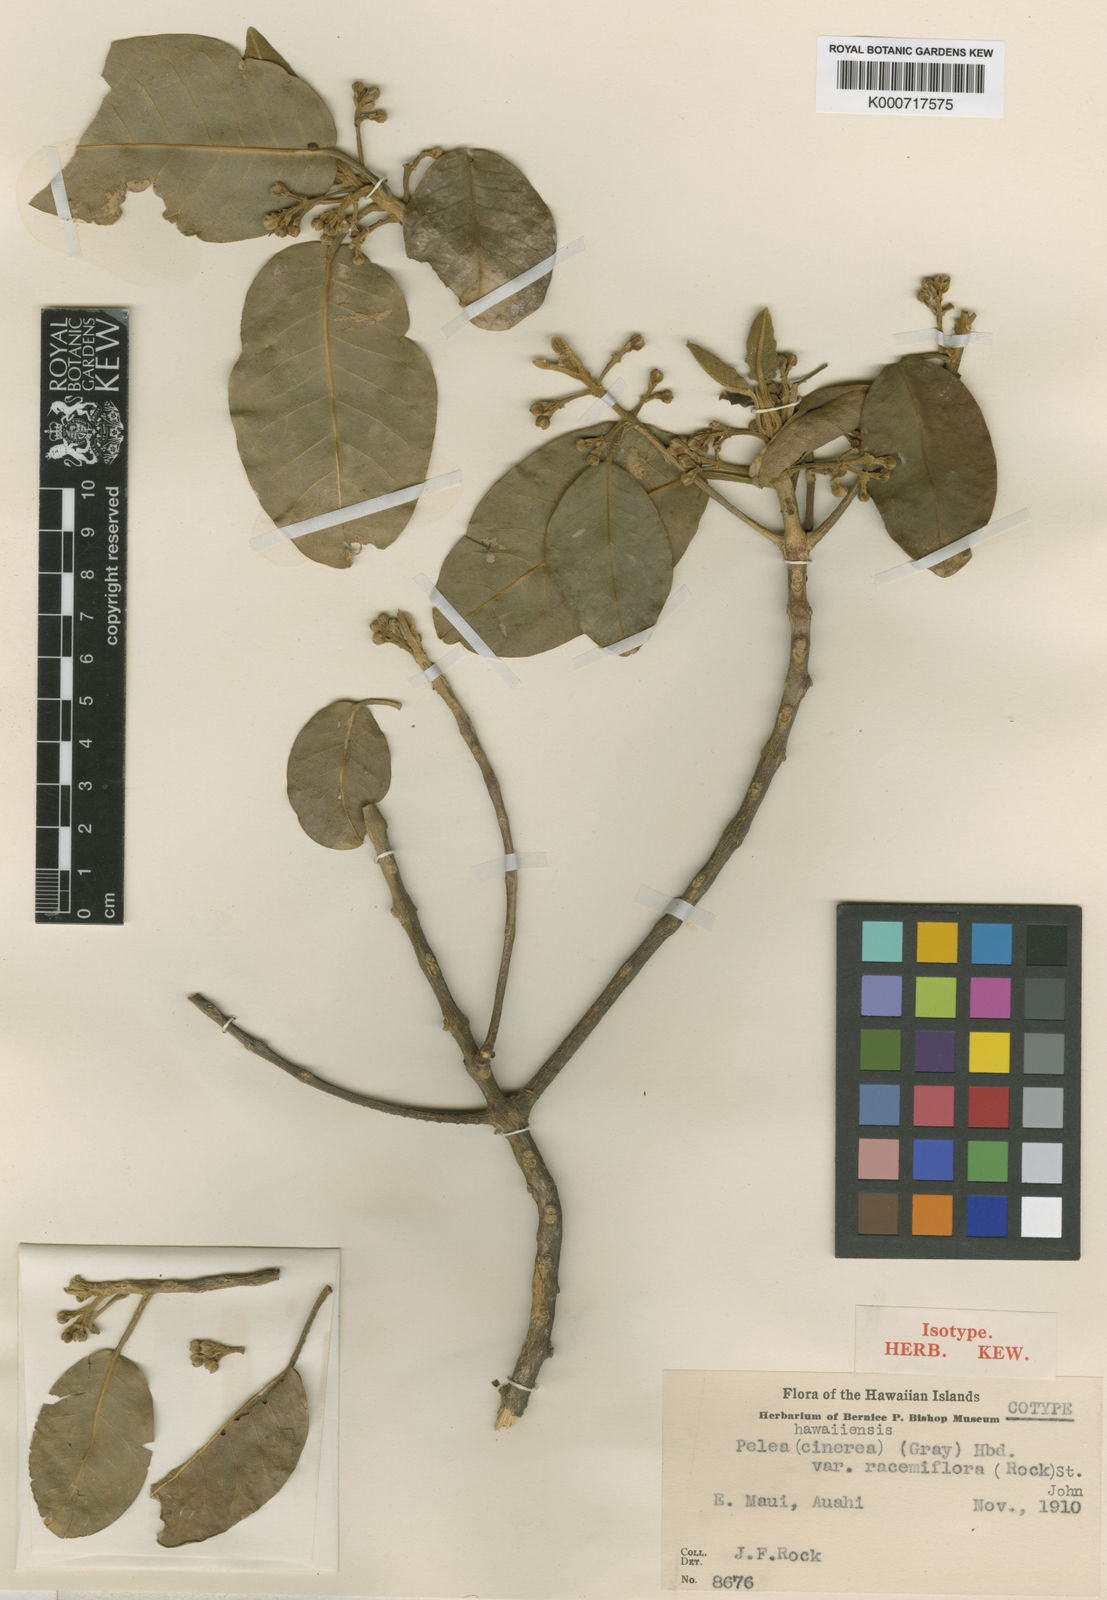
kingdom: Plantae
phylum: Tracheophyta
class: Magnoliopsida
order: Sapindales
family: Rutaceae
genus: Melicope
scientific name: Melicope hawaiensis
